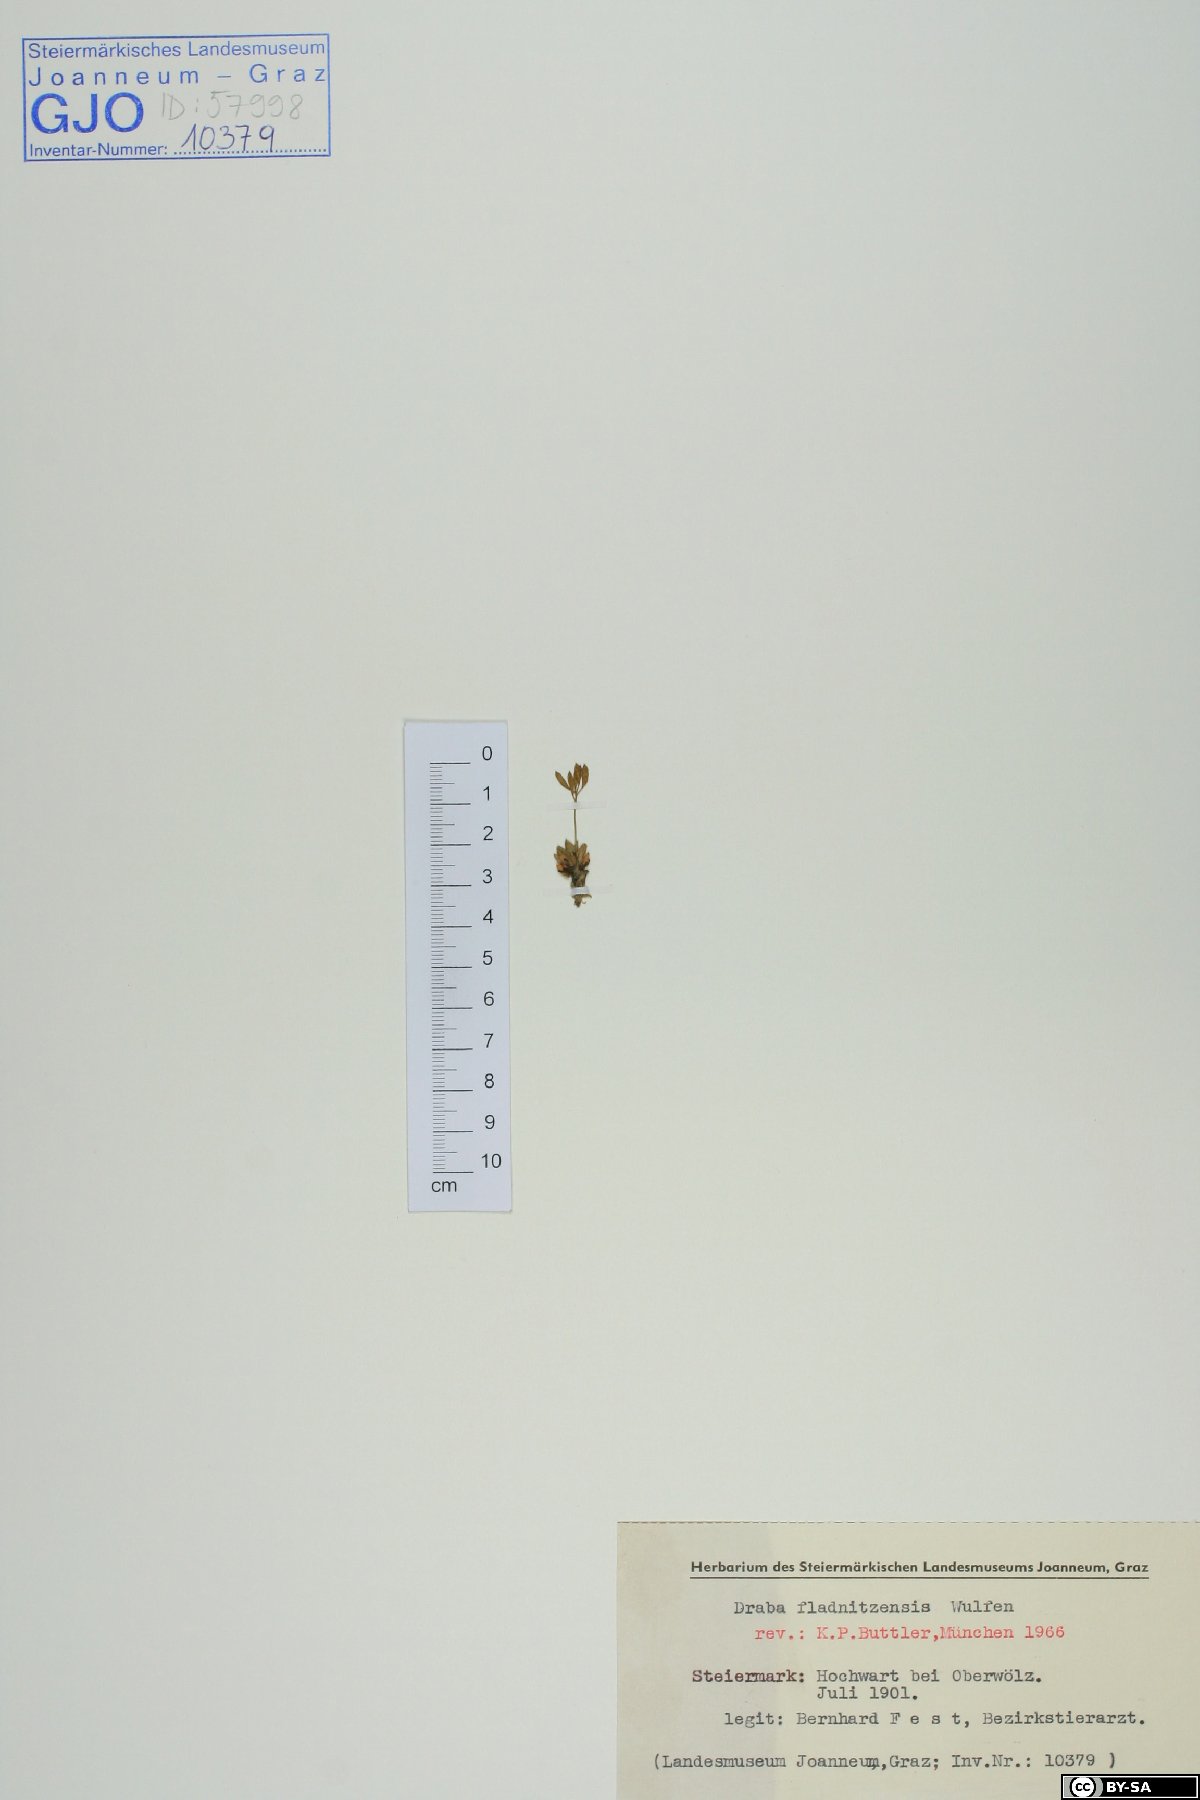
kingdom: Plantae
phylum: Tracheophyta
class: Magnoliopsida
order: Brassicales
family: Brassicaceae
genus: Draba
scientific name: Draba fladnizensis
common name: Austrian draba
